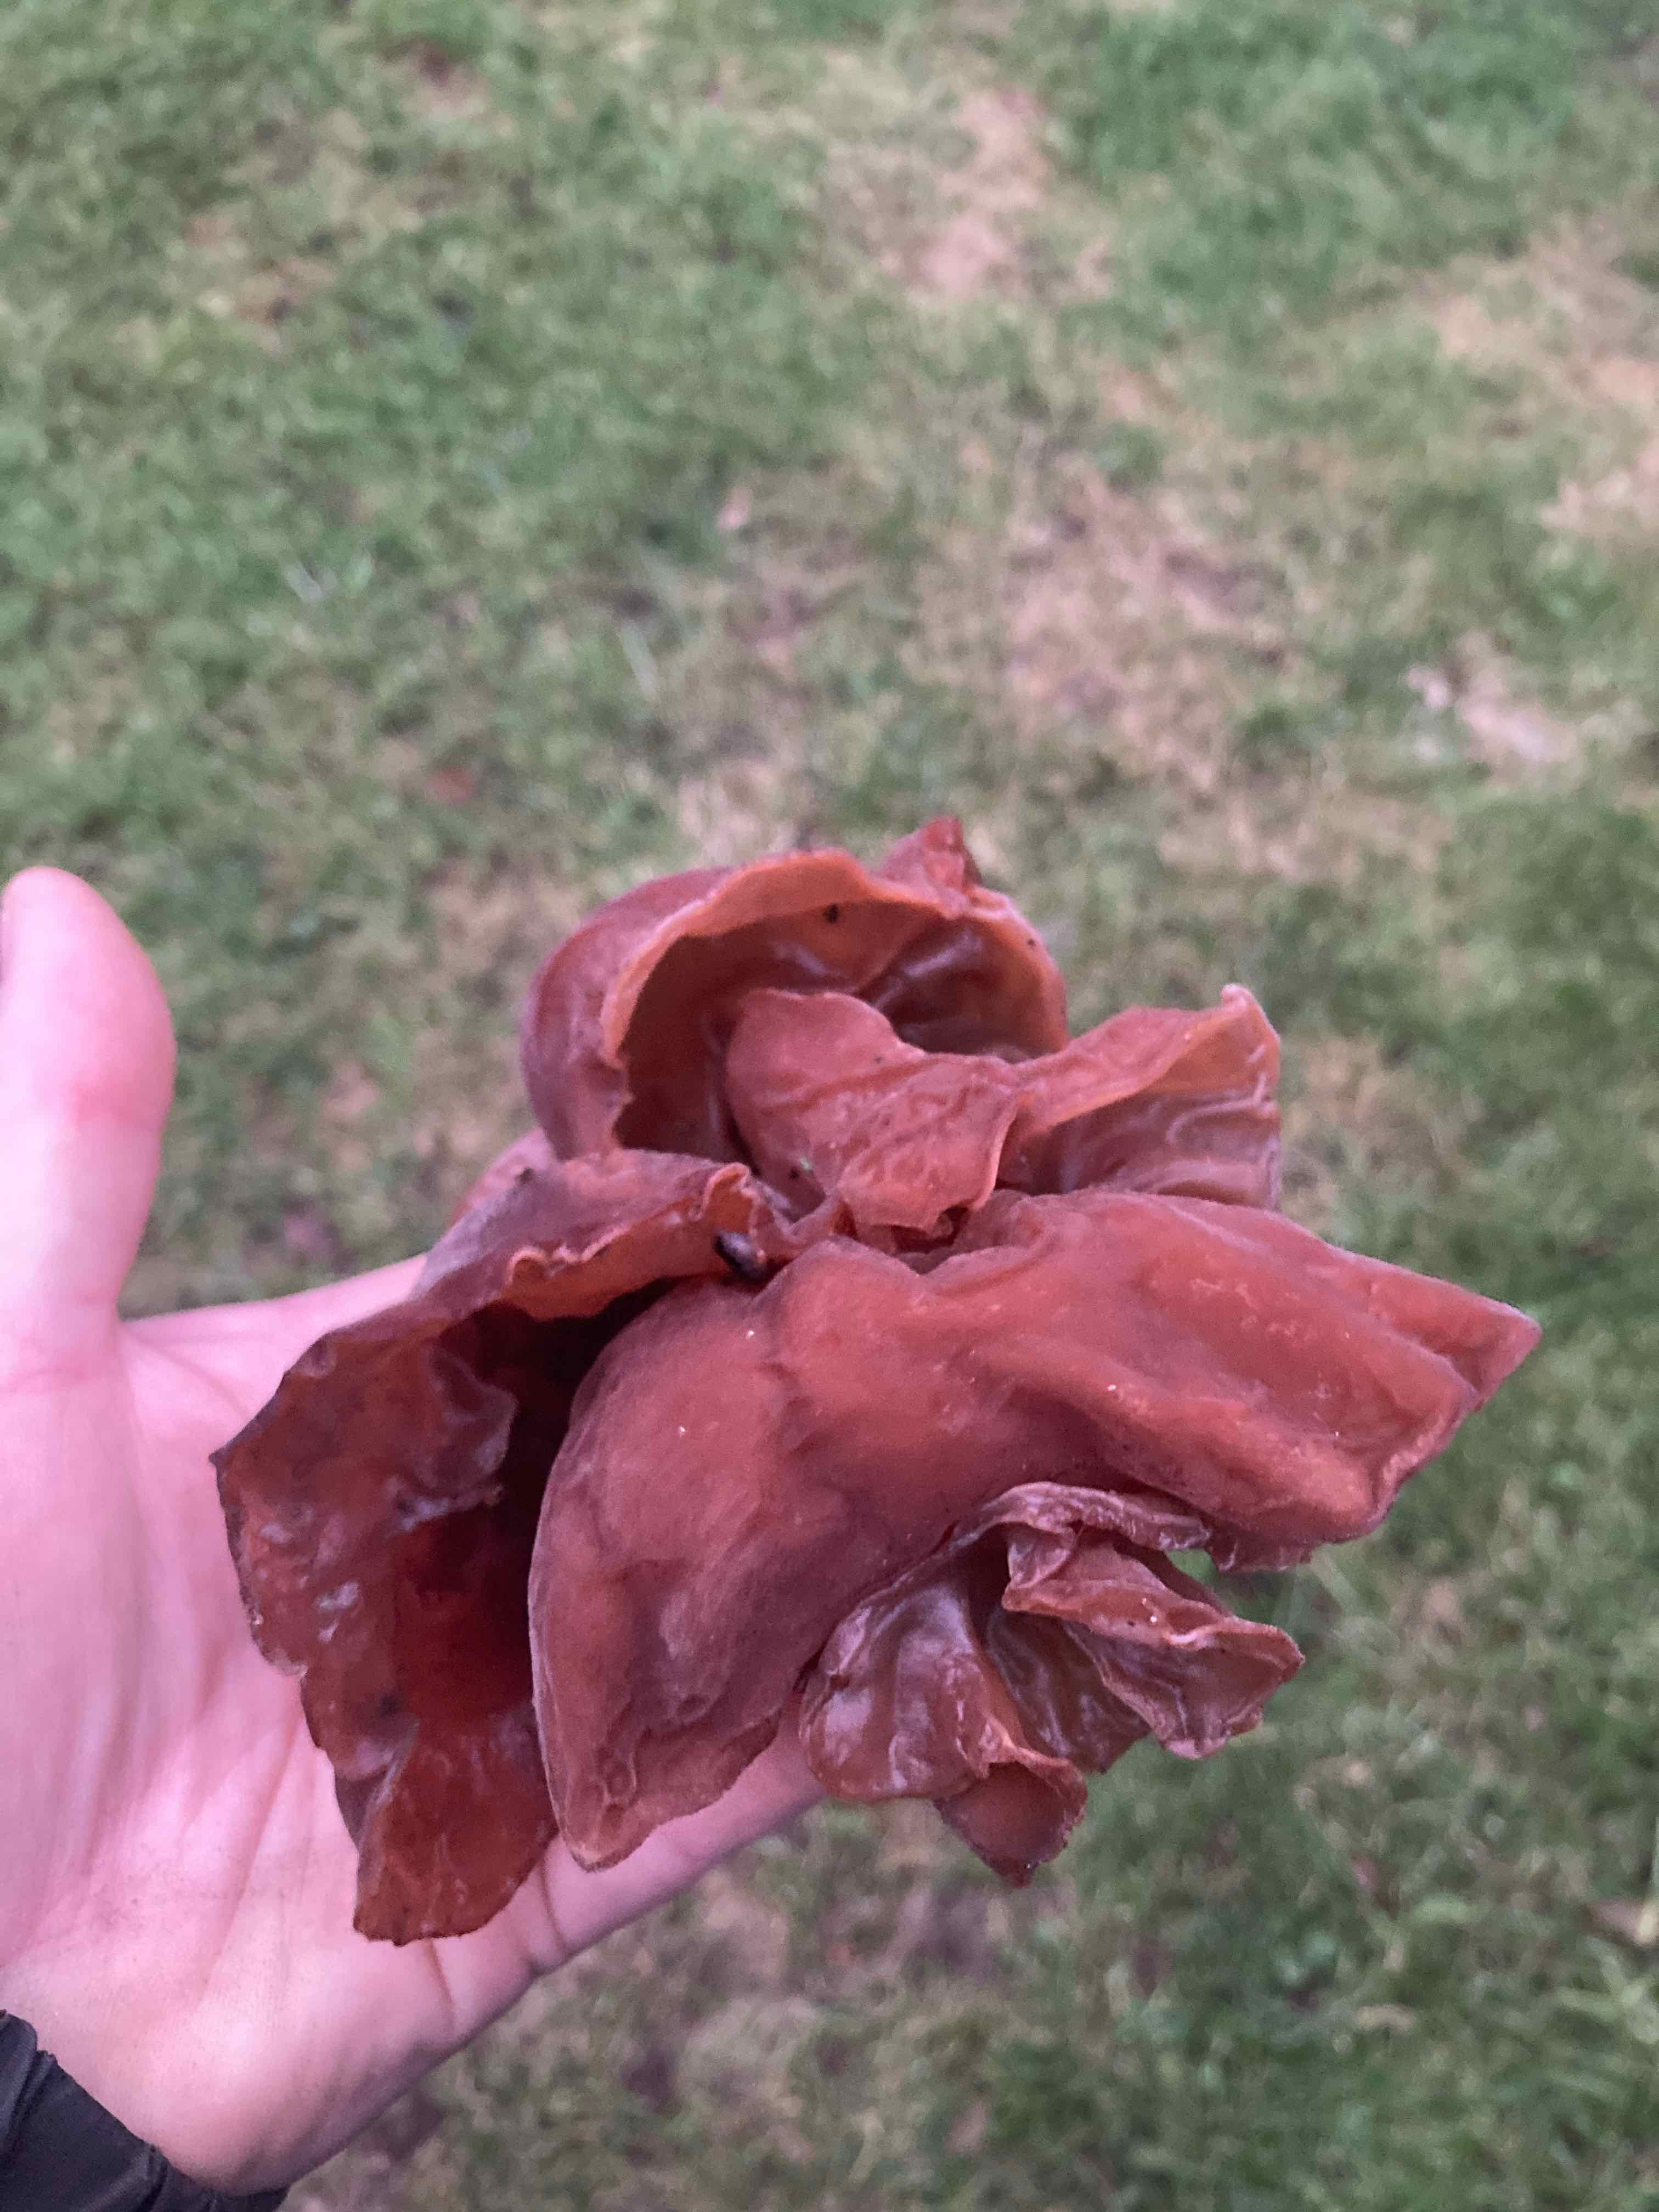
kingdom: Fungi
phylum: Basidiomycota
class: Agaricomycetes
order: Auriculariales
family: Auriculariaceae
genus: Auricularia
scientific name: Auricularia auricula-judae
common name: almindelig judasøre
